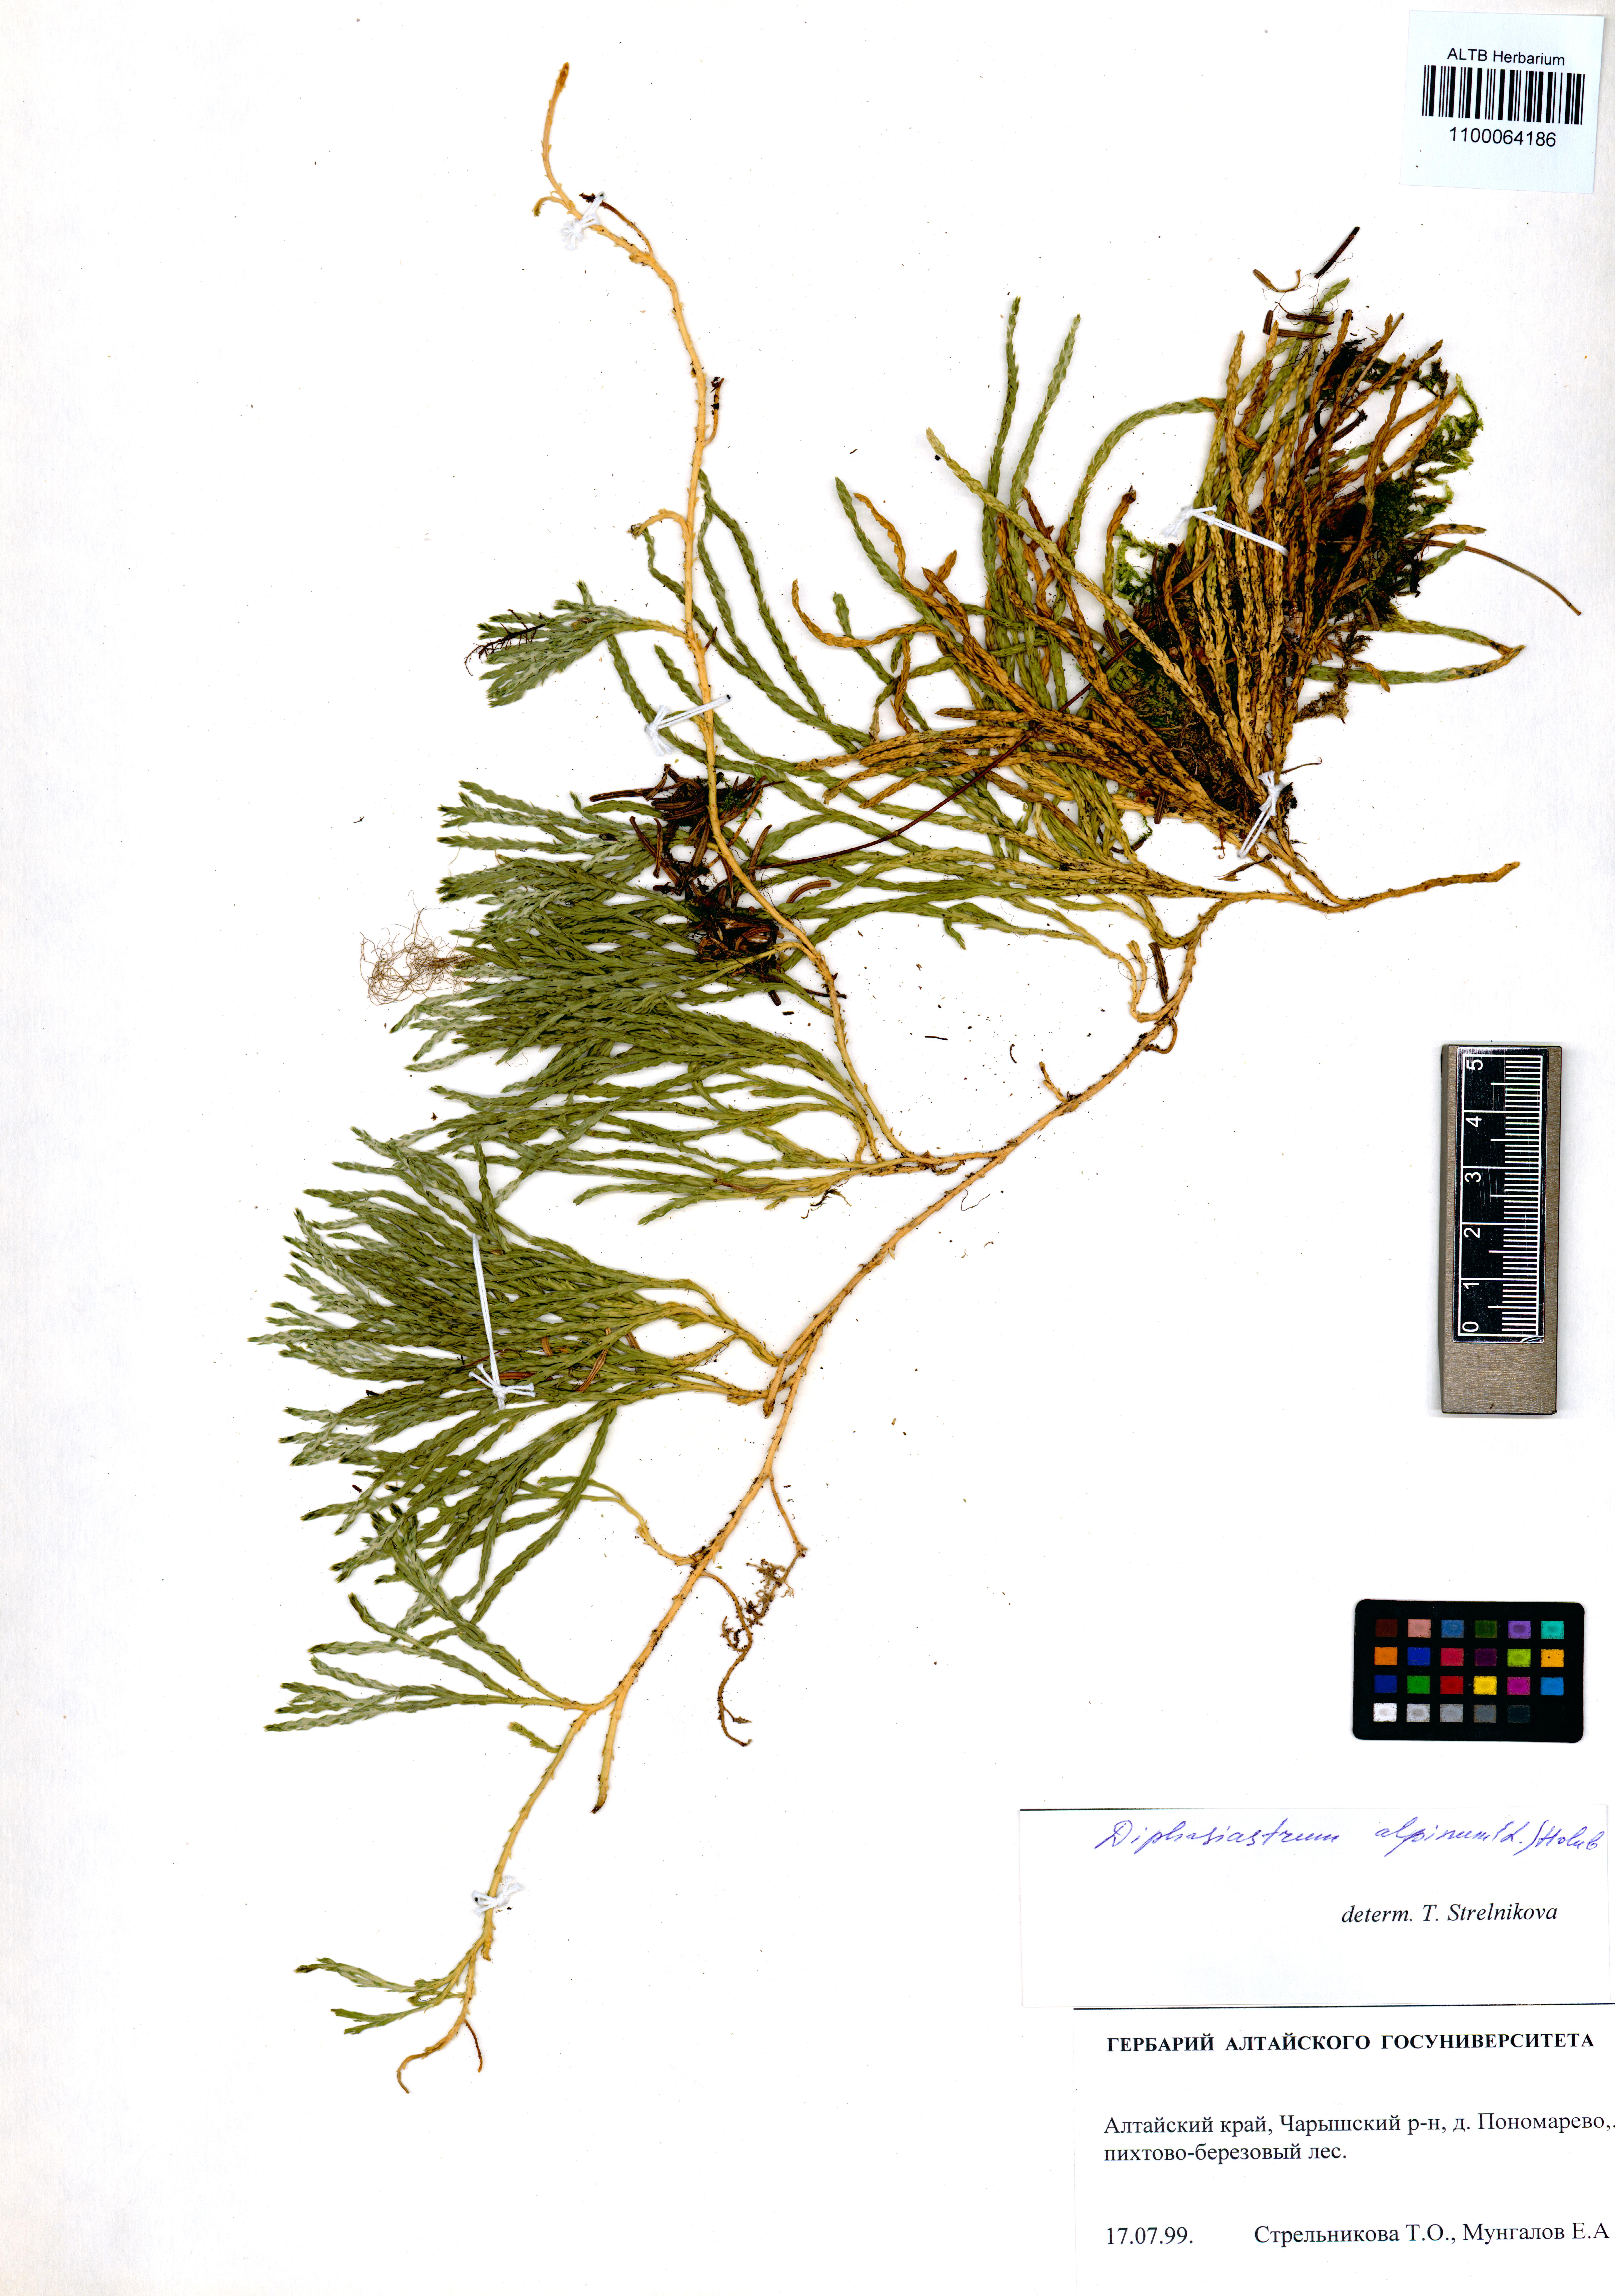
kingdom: Plantae
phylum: Tracheophyta
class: Lycopodiopsida
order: Lycopodiales
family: Lycopodiaceae
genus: Diphasiastrum
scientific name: Diphasiastrum alpinum
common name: Alpine clubmoss
